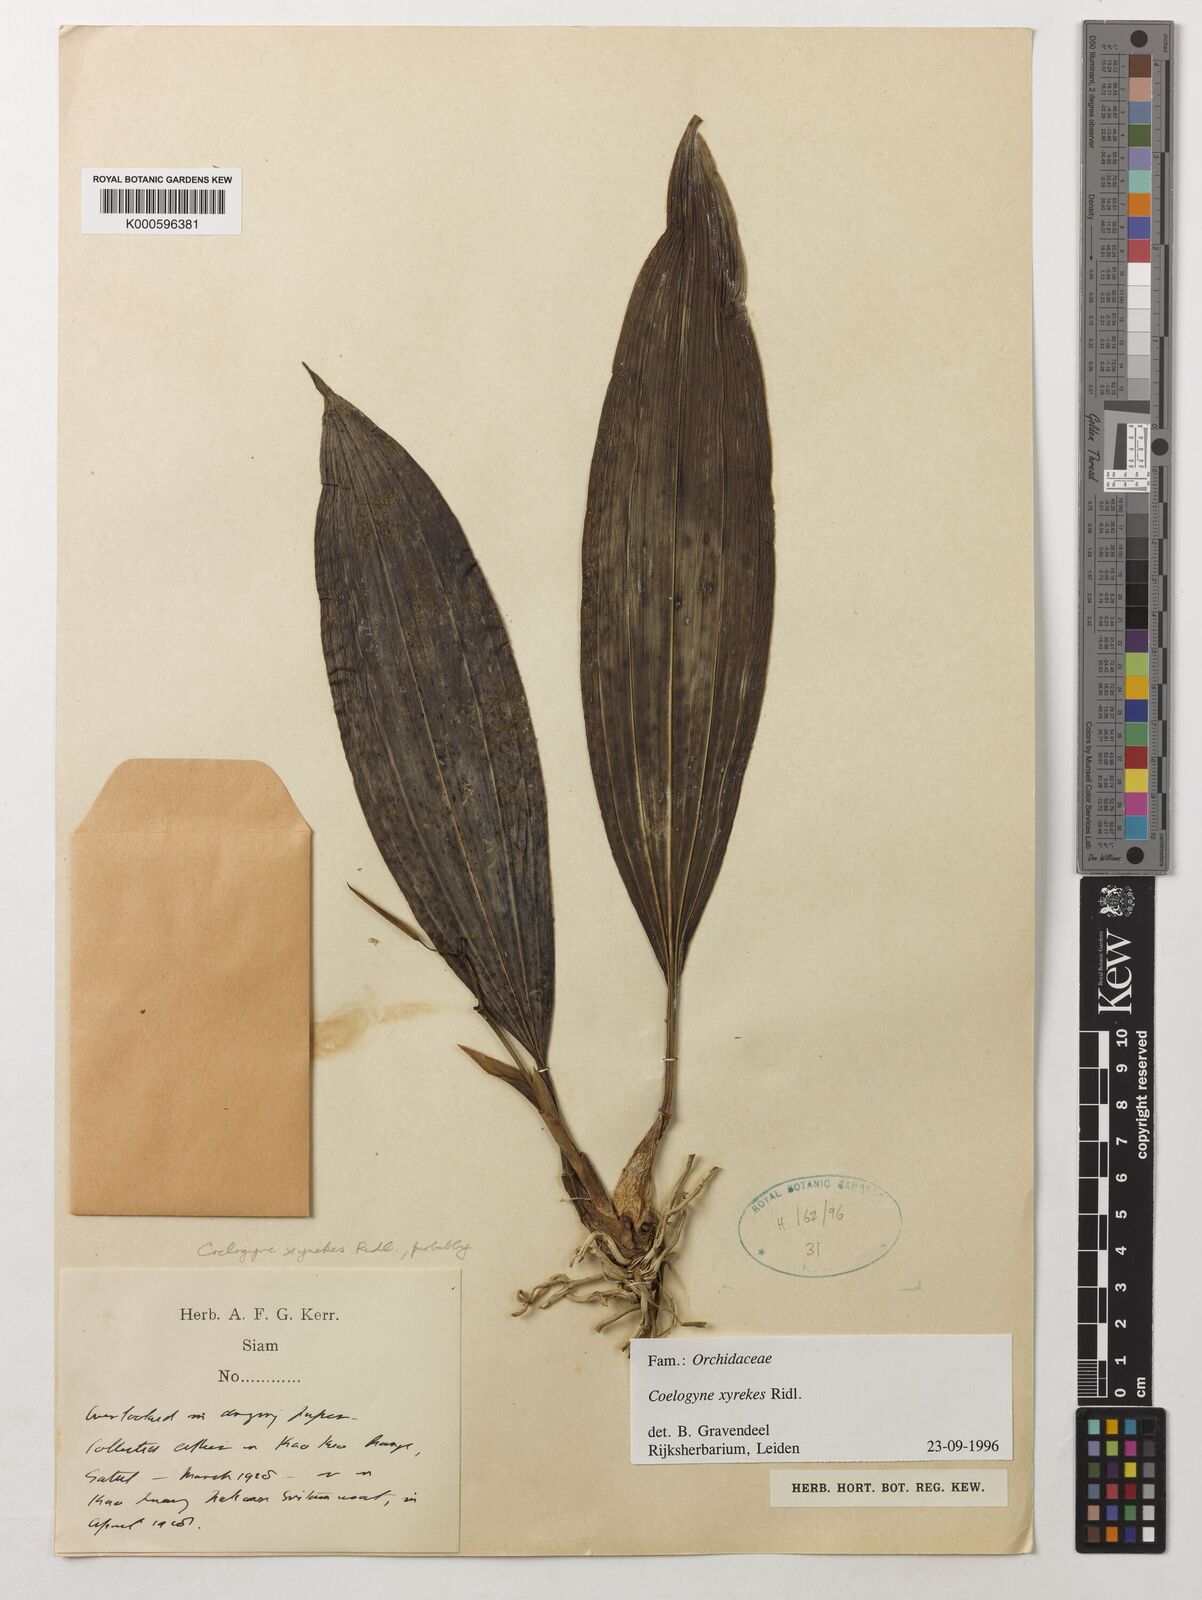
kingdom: Plantae
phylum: Tracheophyta
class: Liliopsida
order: Asparagales
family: Orchidaceae
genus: Coelogyne
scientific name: Coelogyne xyrekes
